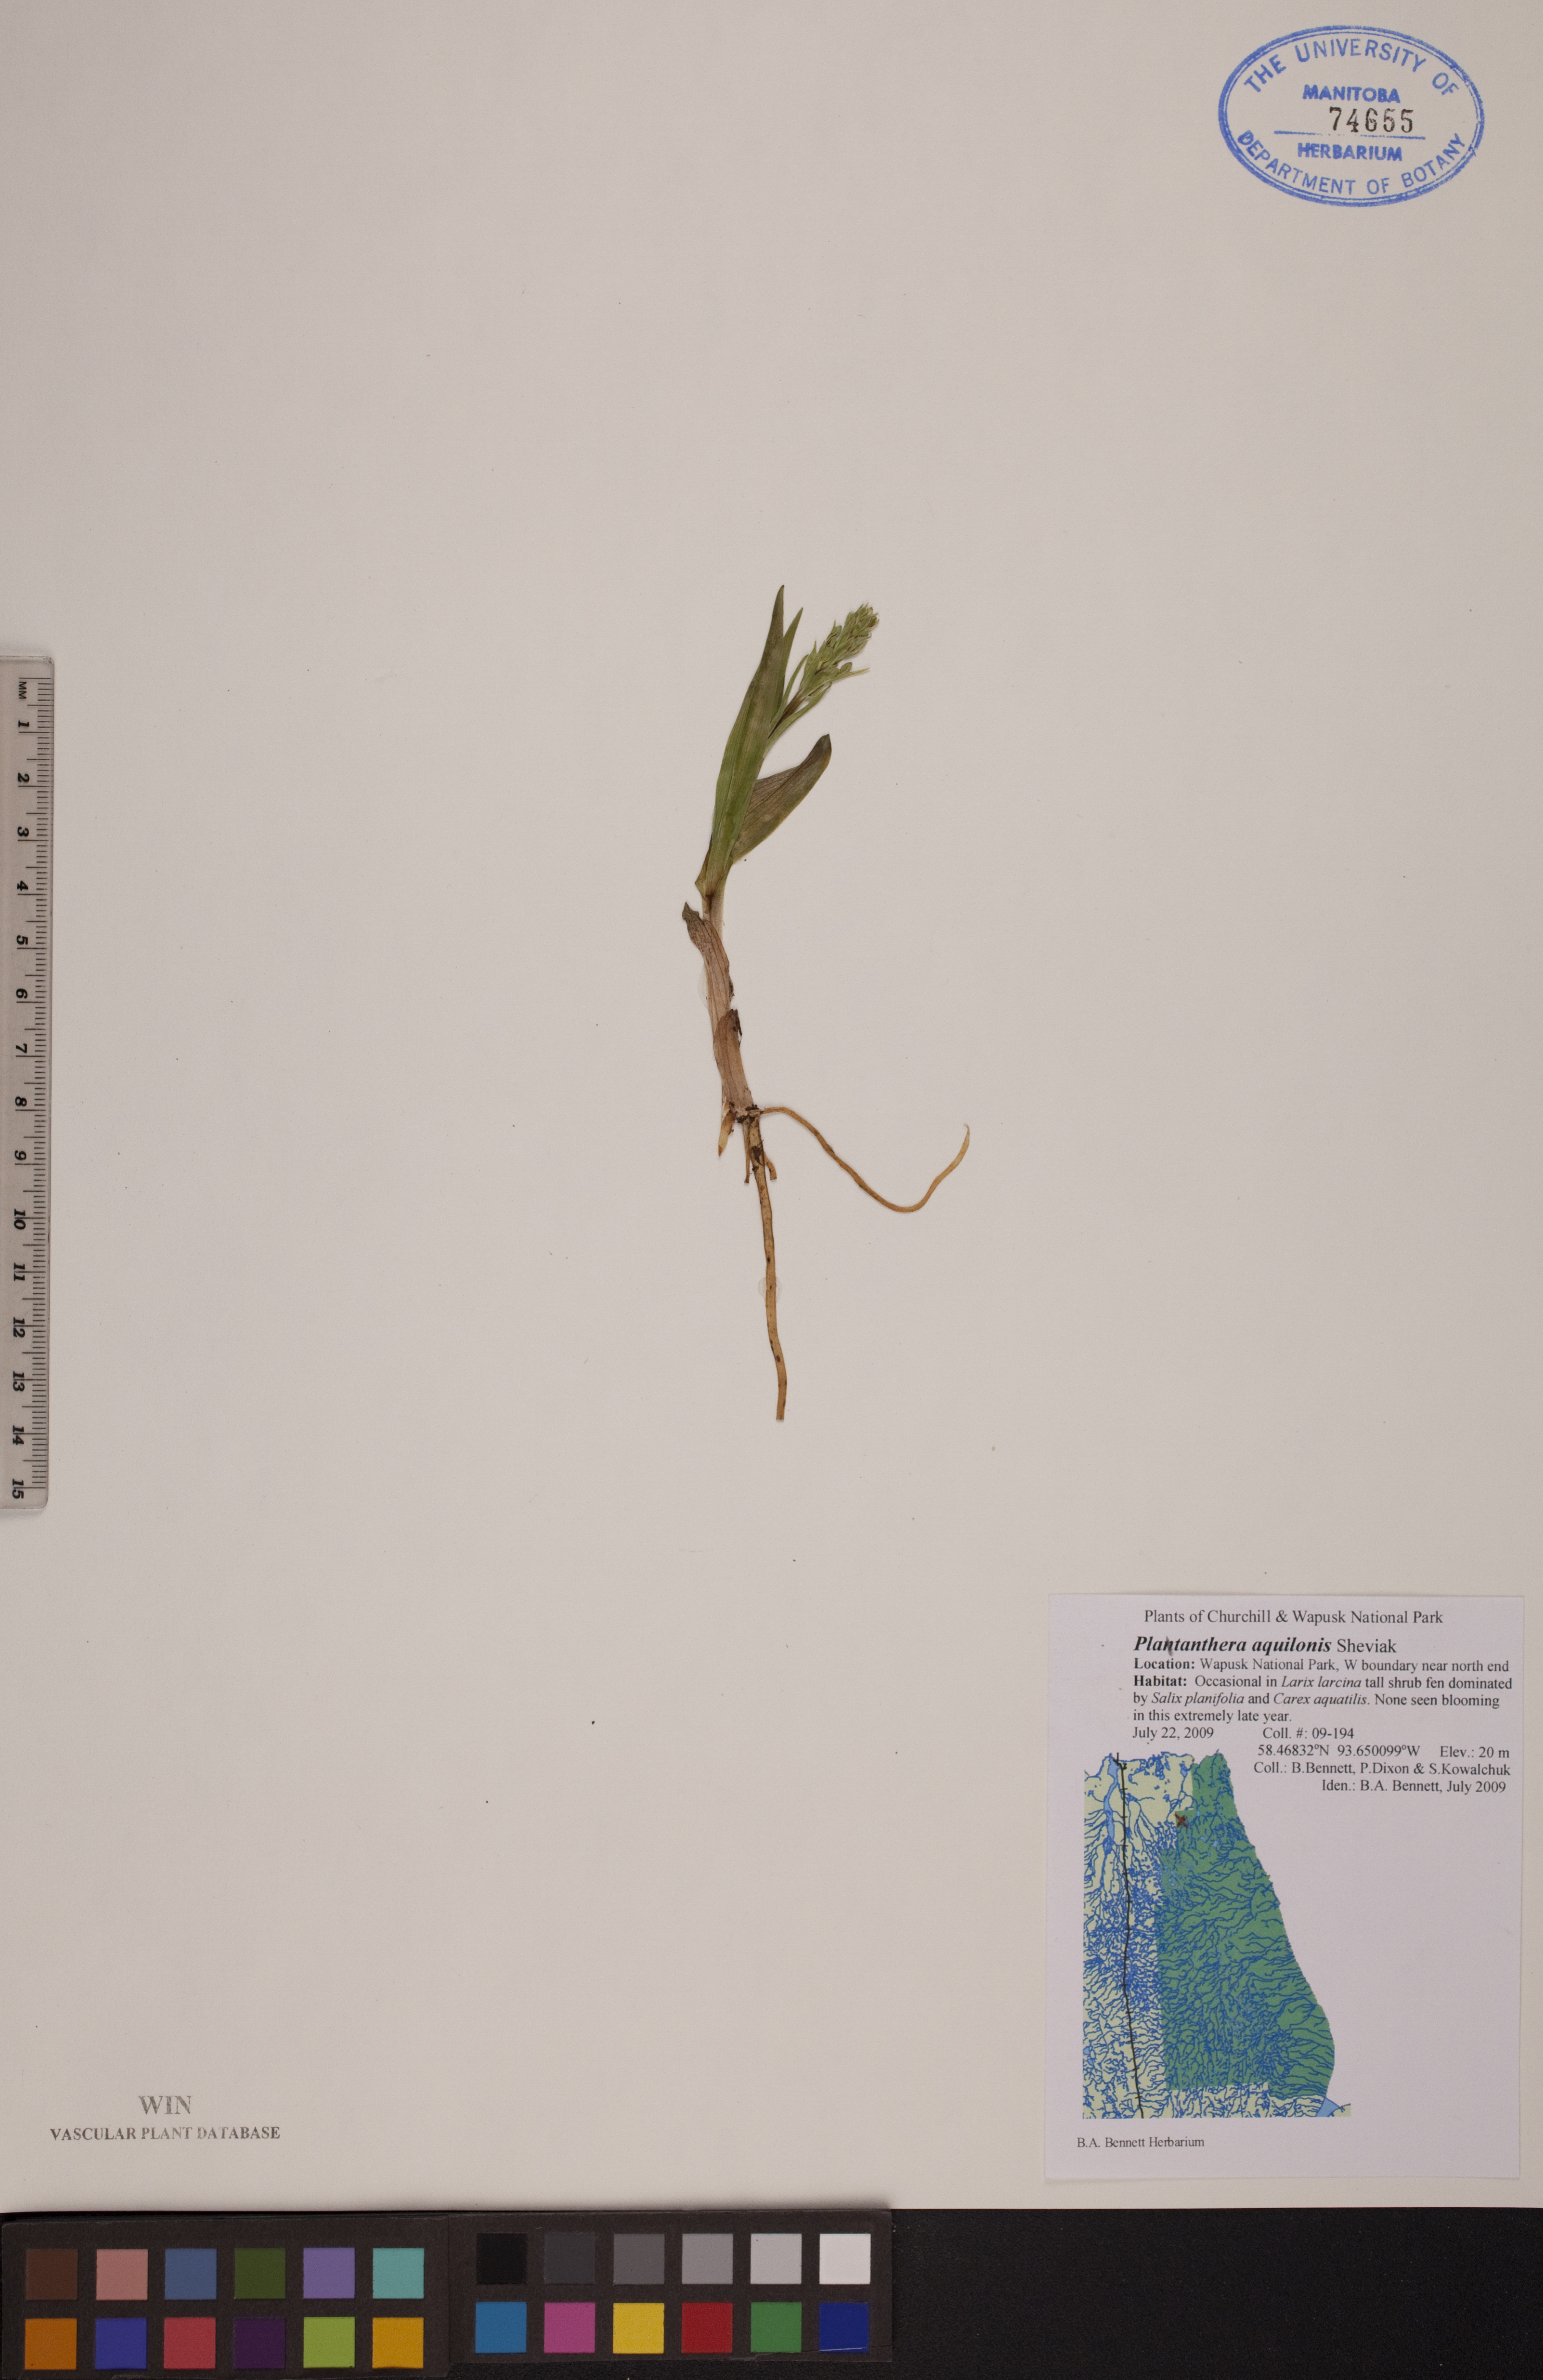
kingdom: Plantae
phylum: Tracheophyta
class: Liliopsida
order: Asparagales
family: Orchidaceae
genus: Platanthera
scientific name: Platanthera aquilonis
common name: Northern green orchid
